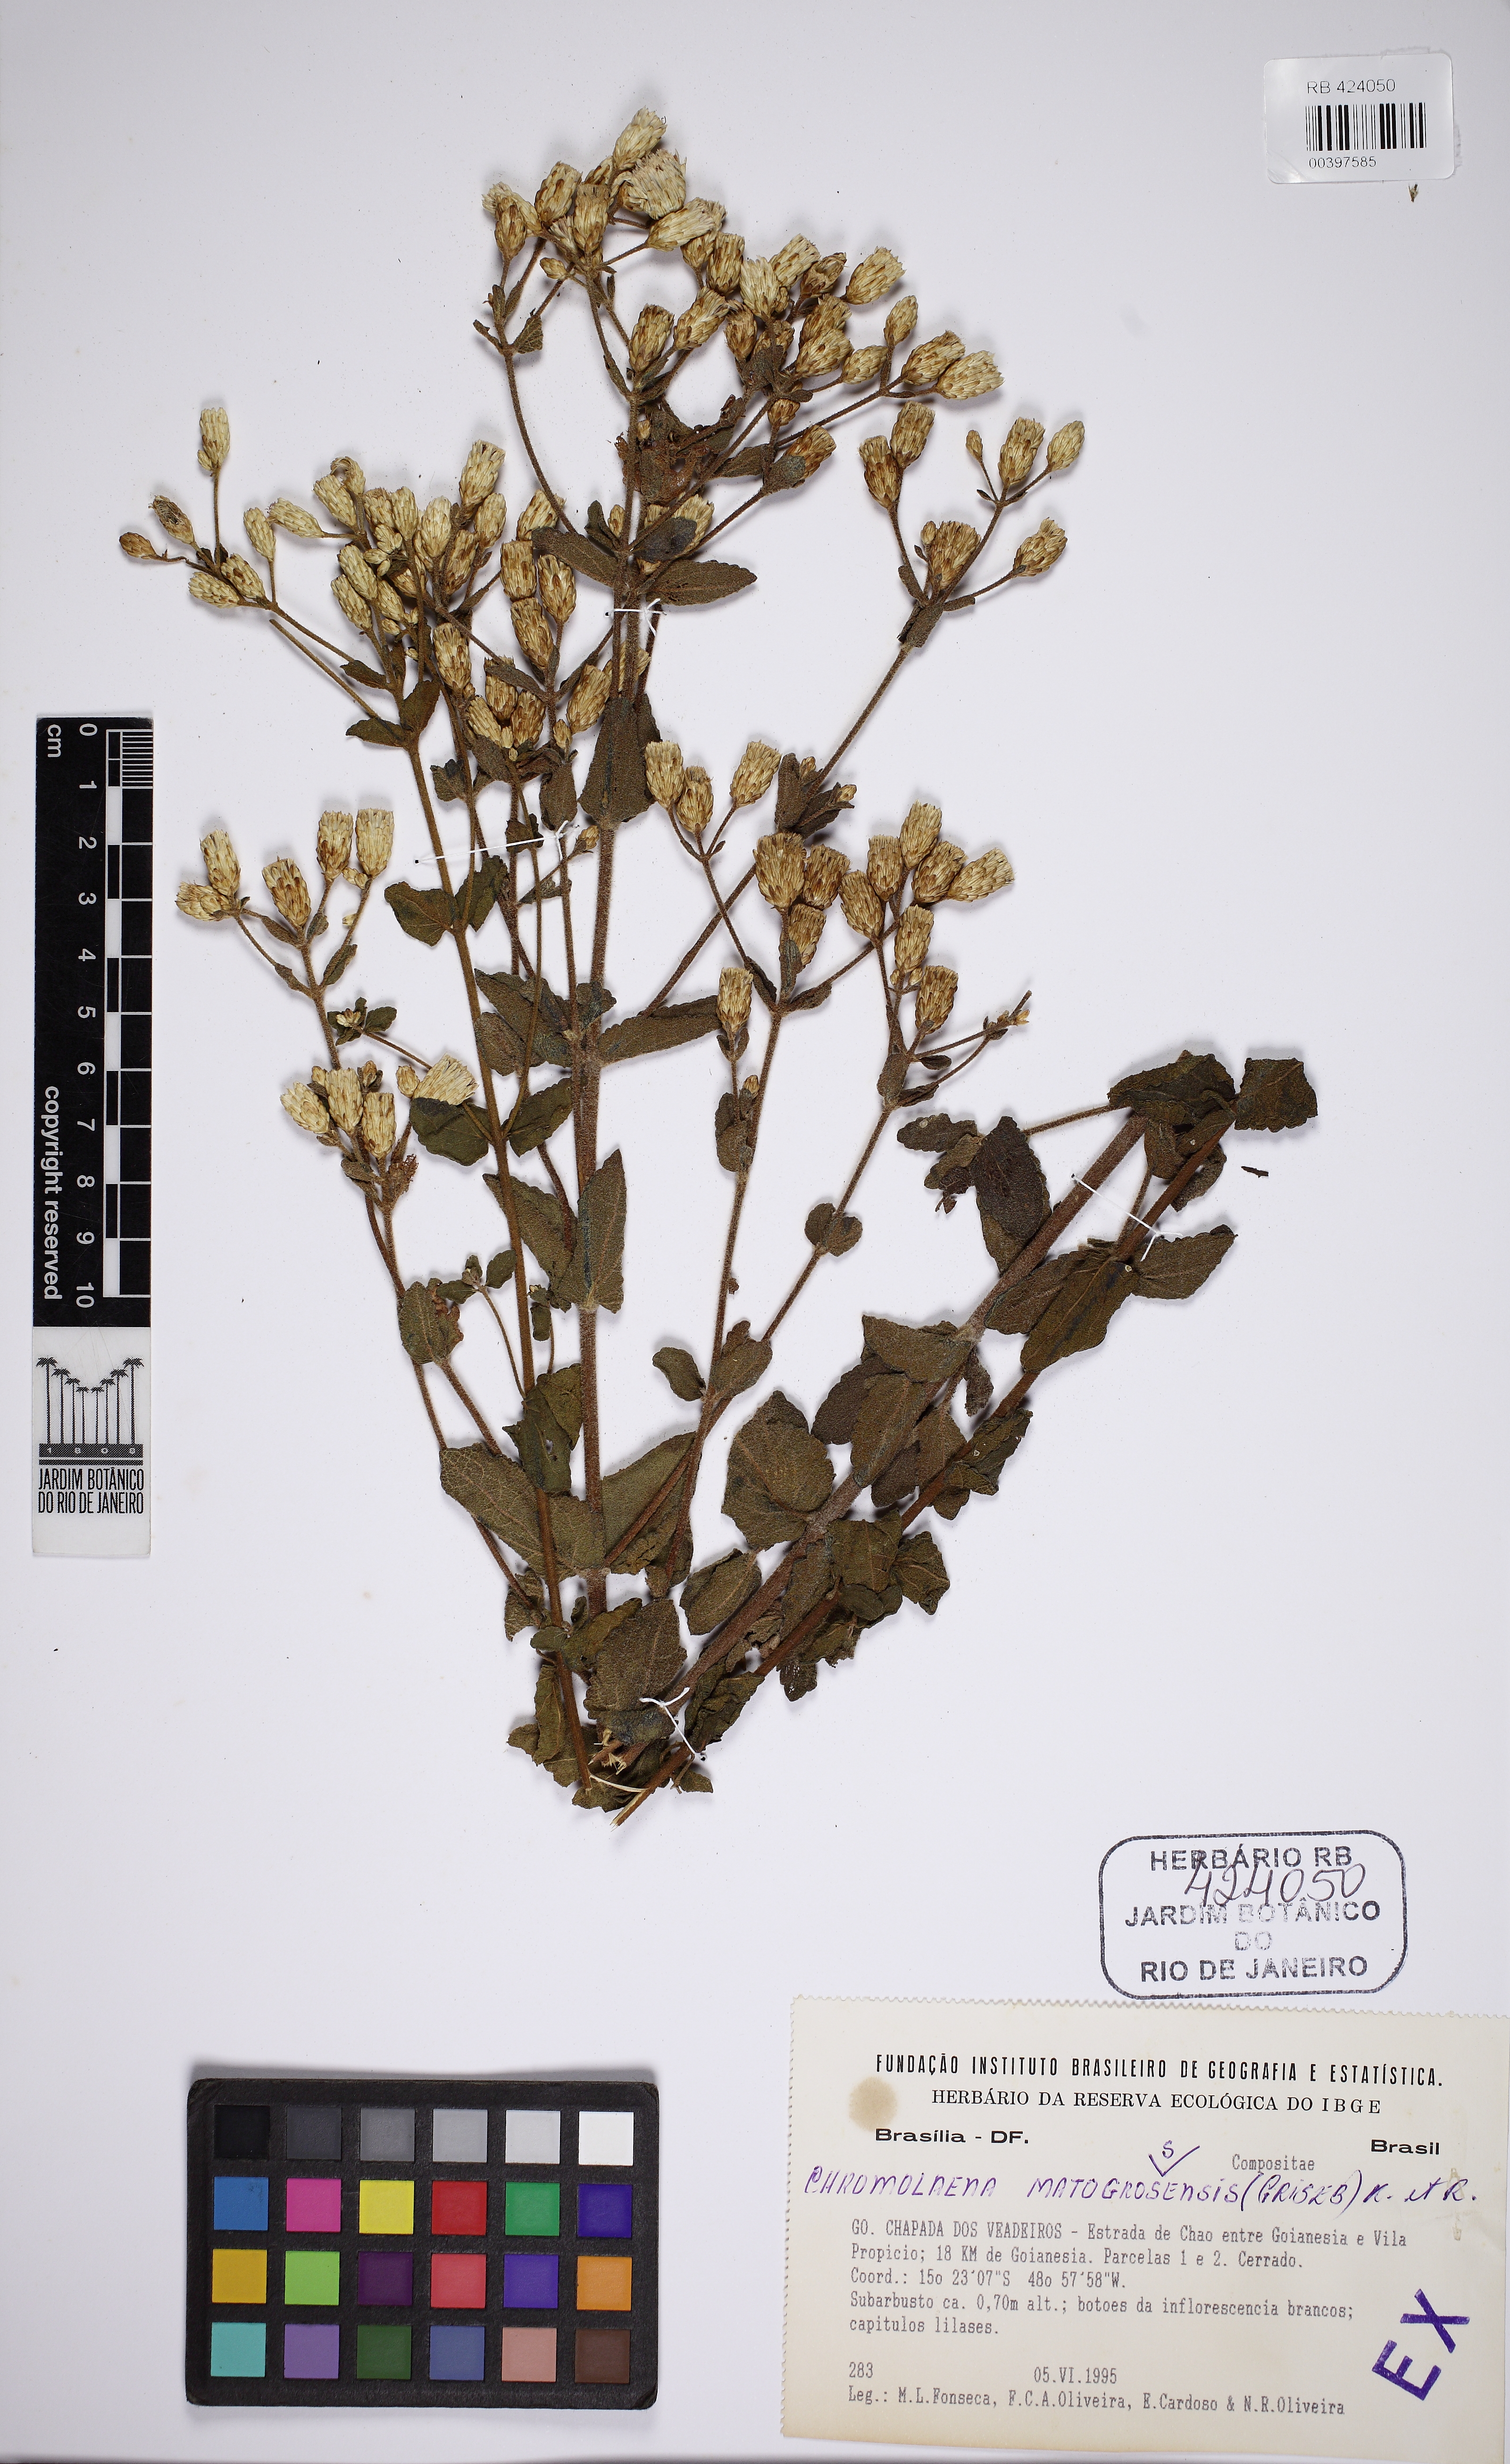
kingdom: Plantae
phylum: Tracheophyta
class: Magnoliopsida
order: Asterales
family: Asteraceae
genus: Chromolaena
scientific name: Chromolaena mattogrossensis
